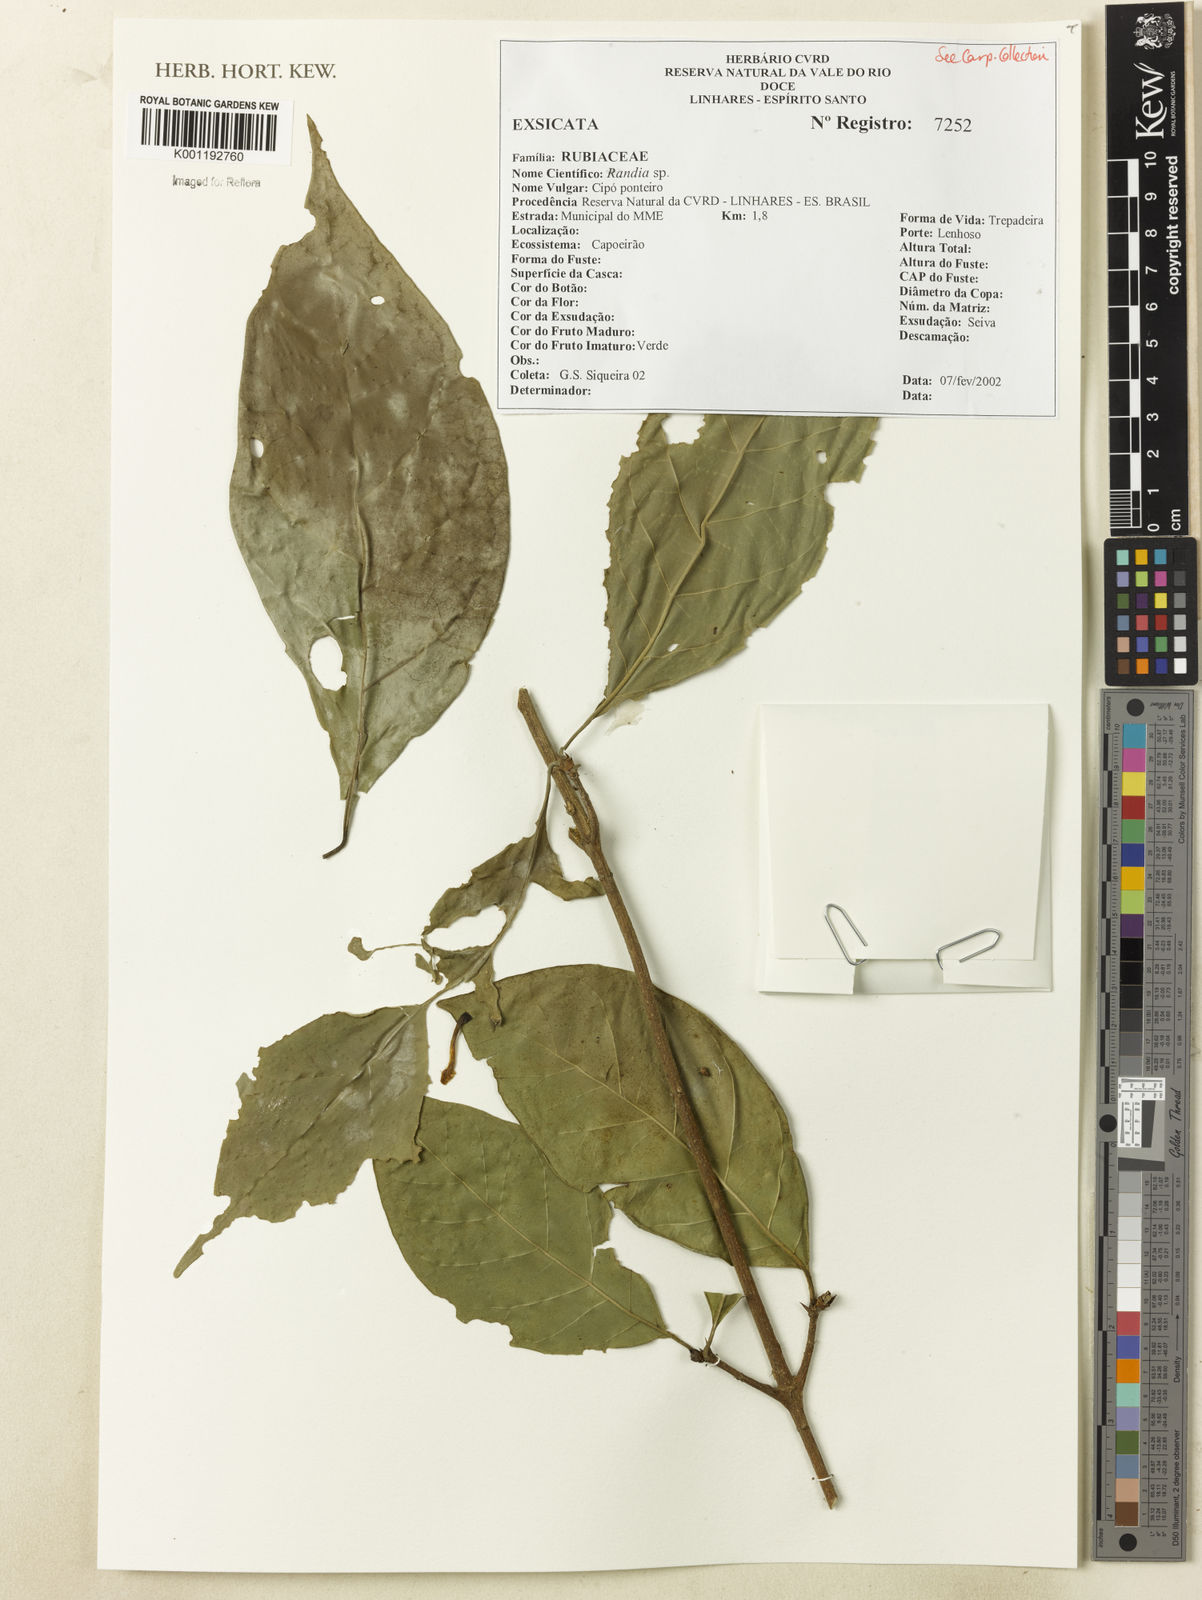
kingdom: Plantae
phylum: Tracheophyta
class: Magnoliopsida
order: Gentianales
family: Rubiaceae
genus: Randia
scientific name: Randia
